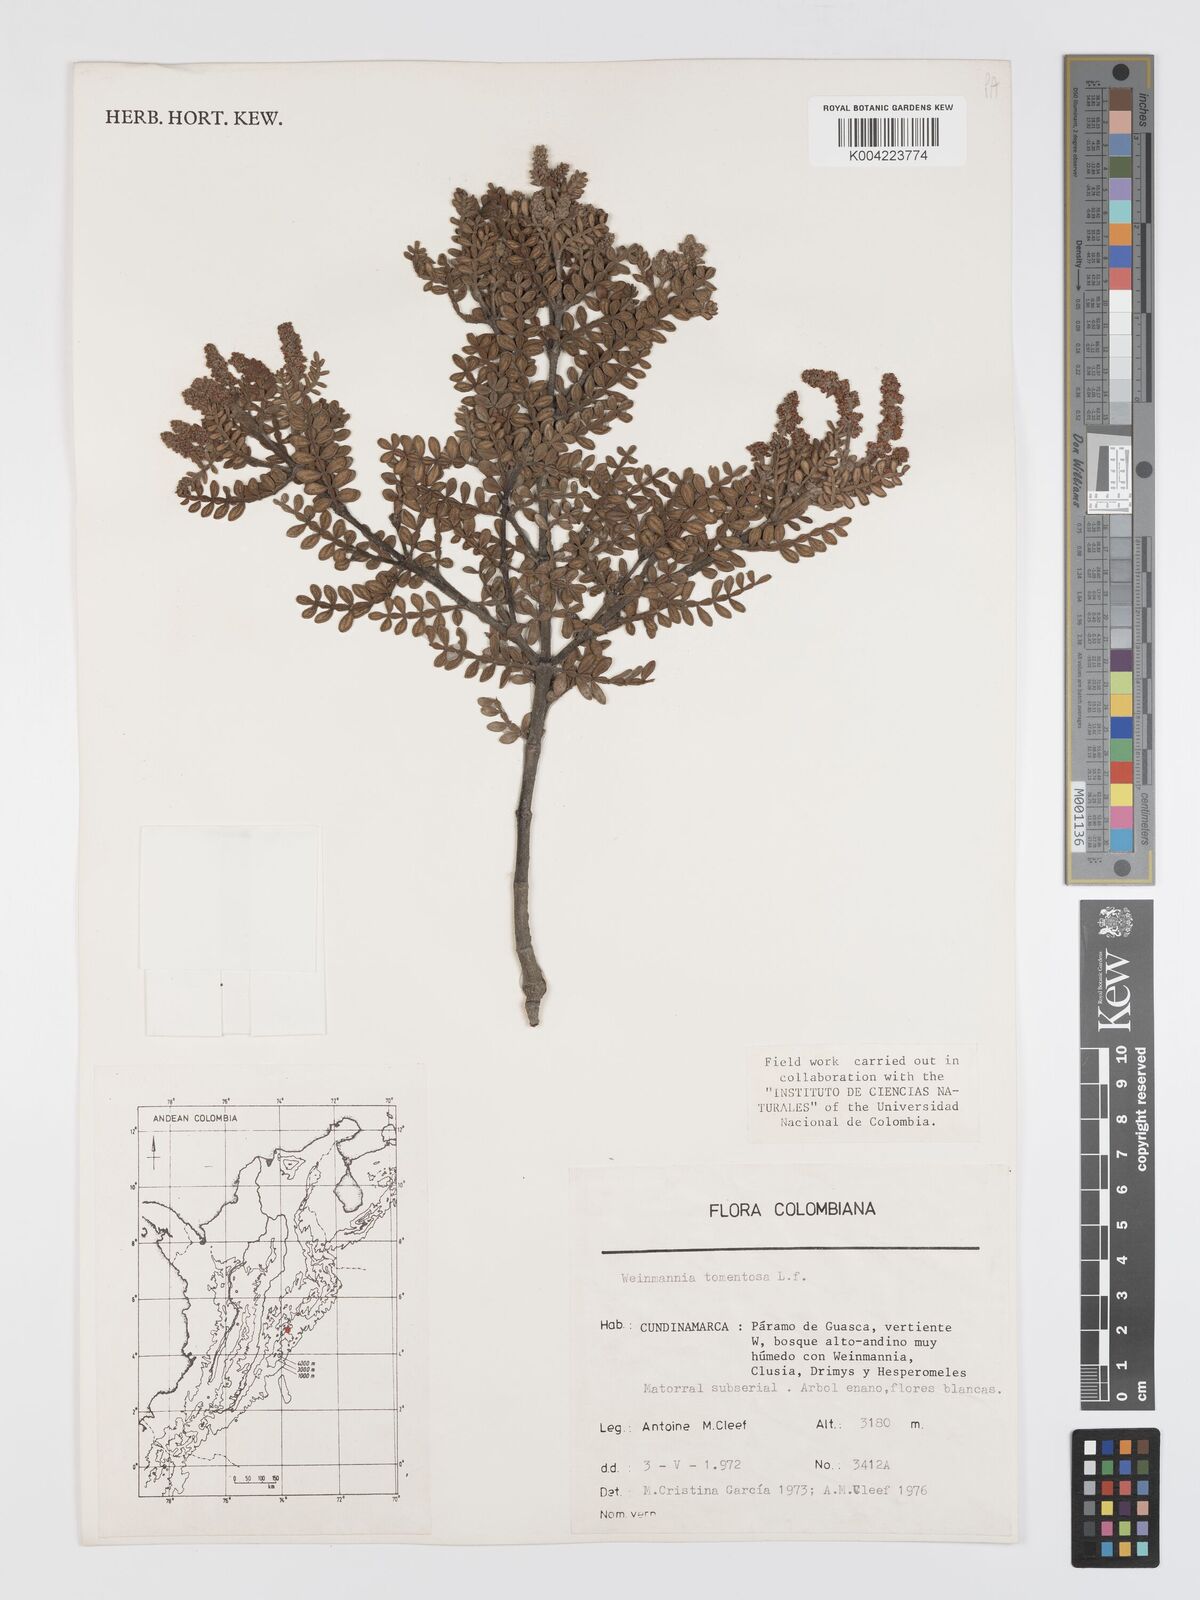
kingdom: Plantae
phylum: Tracheophyta
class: Magnoliopsida
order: Oxalidales
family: Cunoniaceae
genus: Weinmannia
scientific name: Weinmannia tomentosa
